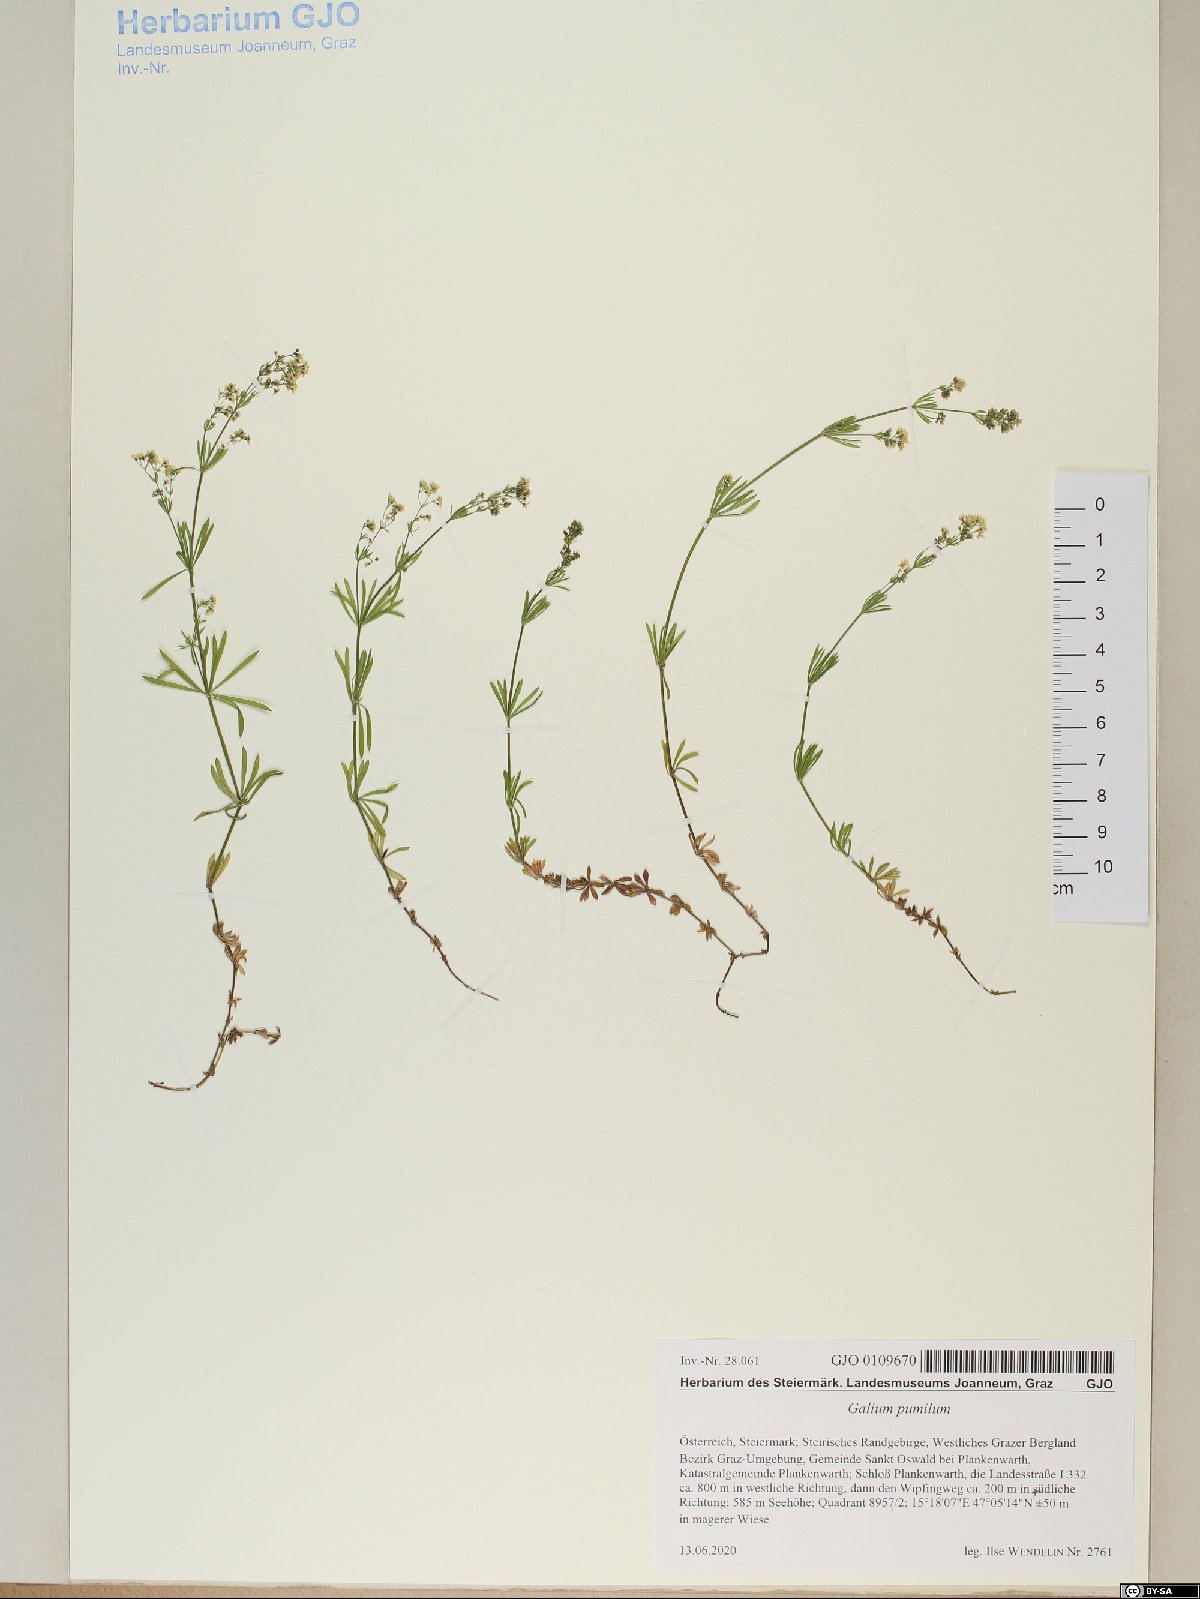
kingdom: Plantae
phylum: Tracheophyta
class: Magnoliopsida
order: Gentianales
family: Rubiaceae
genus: Galium
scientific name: Galium pumilum
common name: Slender bedstraw
